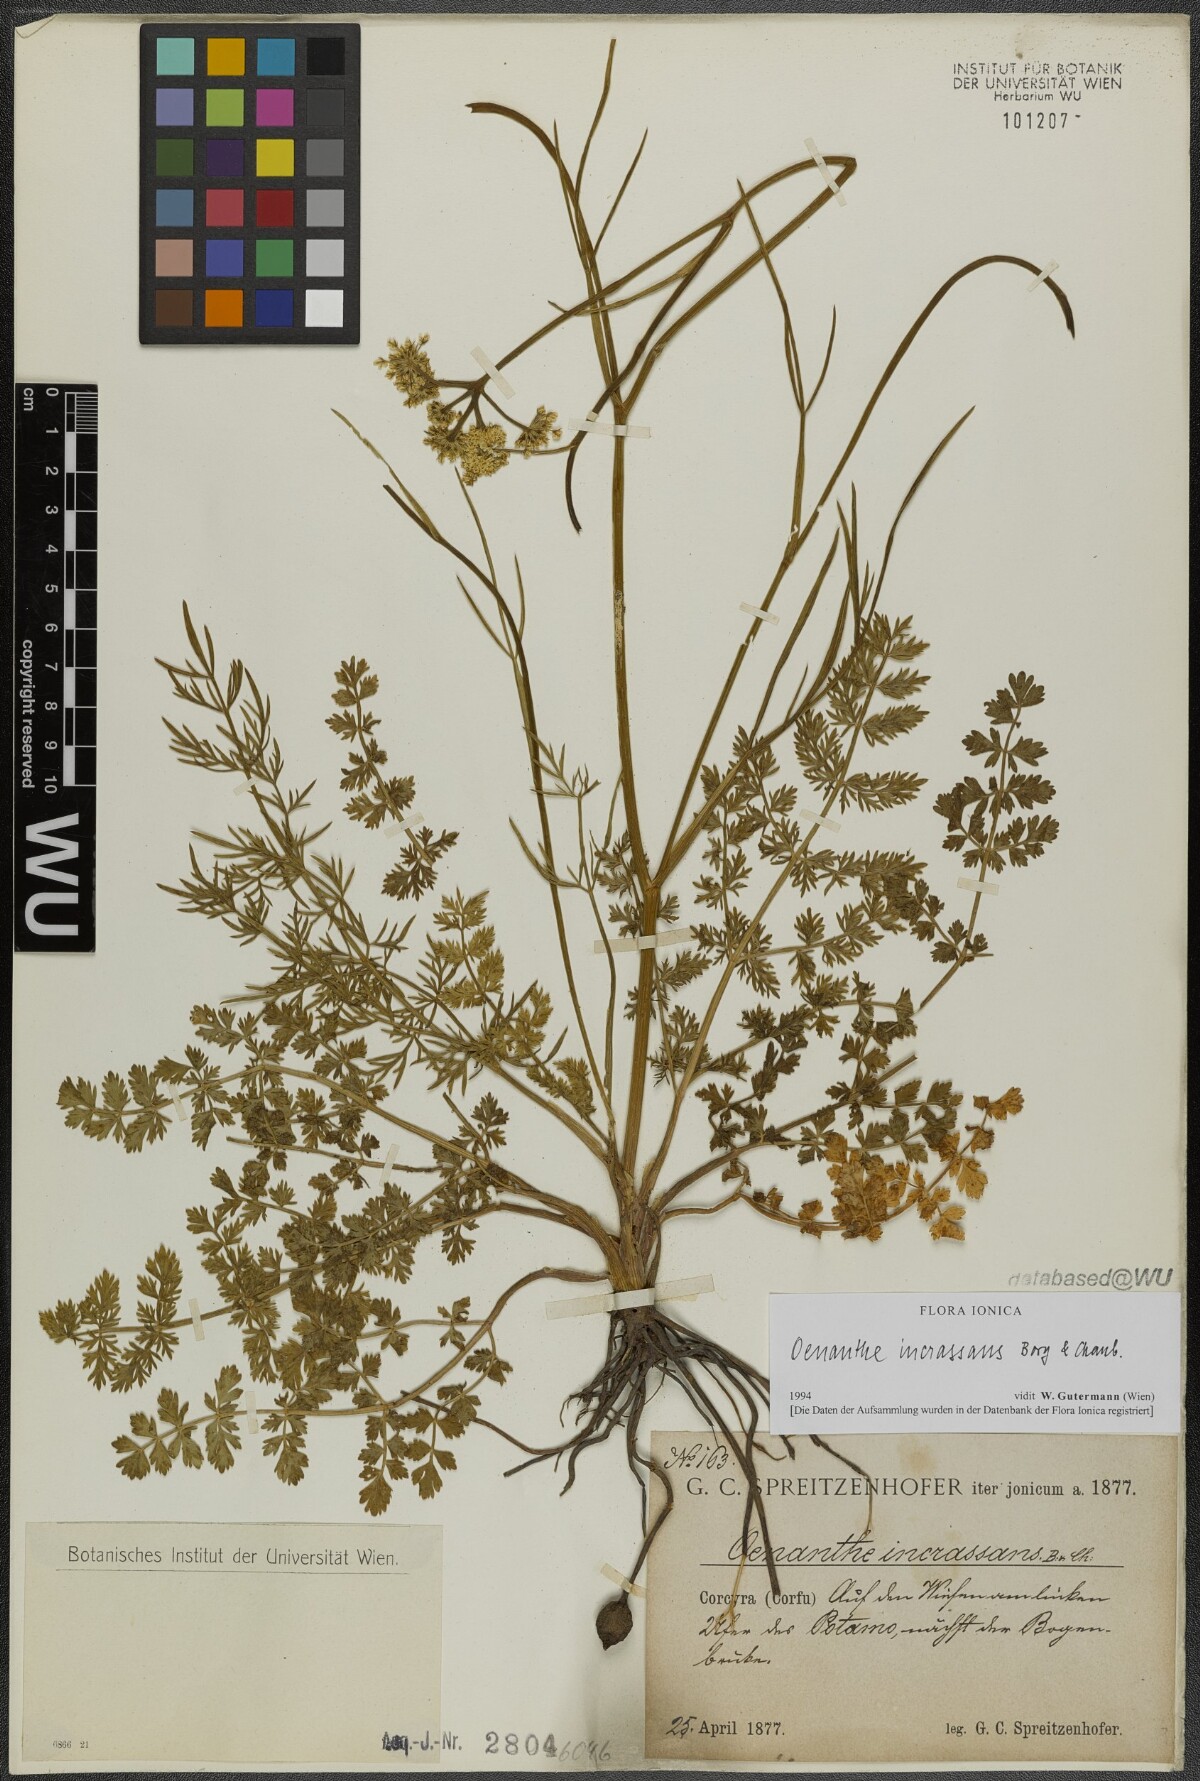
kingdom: Plantae
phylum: Tracheophyta
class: Magnoliopsida
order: Apiales
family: Apiaceae
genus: Oenanthe
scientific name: Oenanthe pimpinelloides
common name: Corky-fruited water-dropwort
